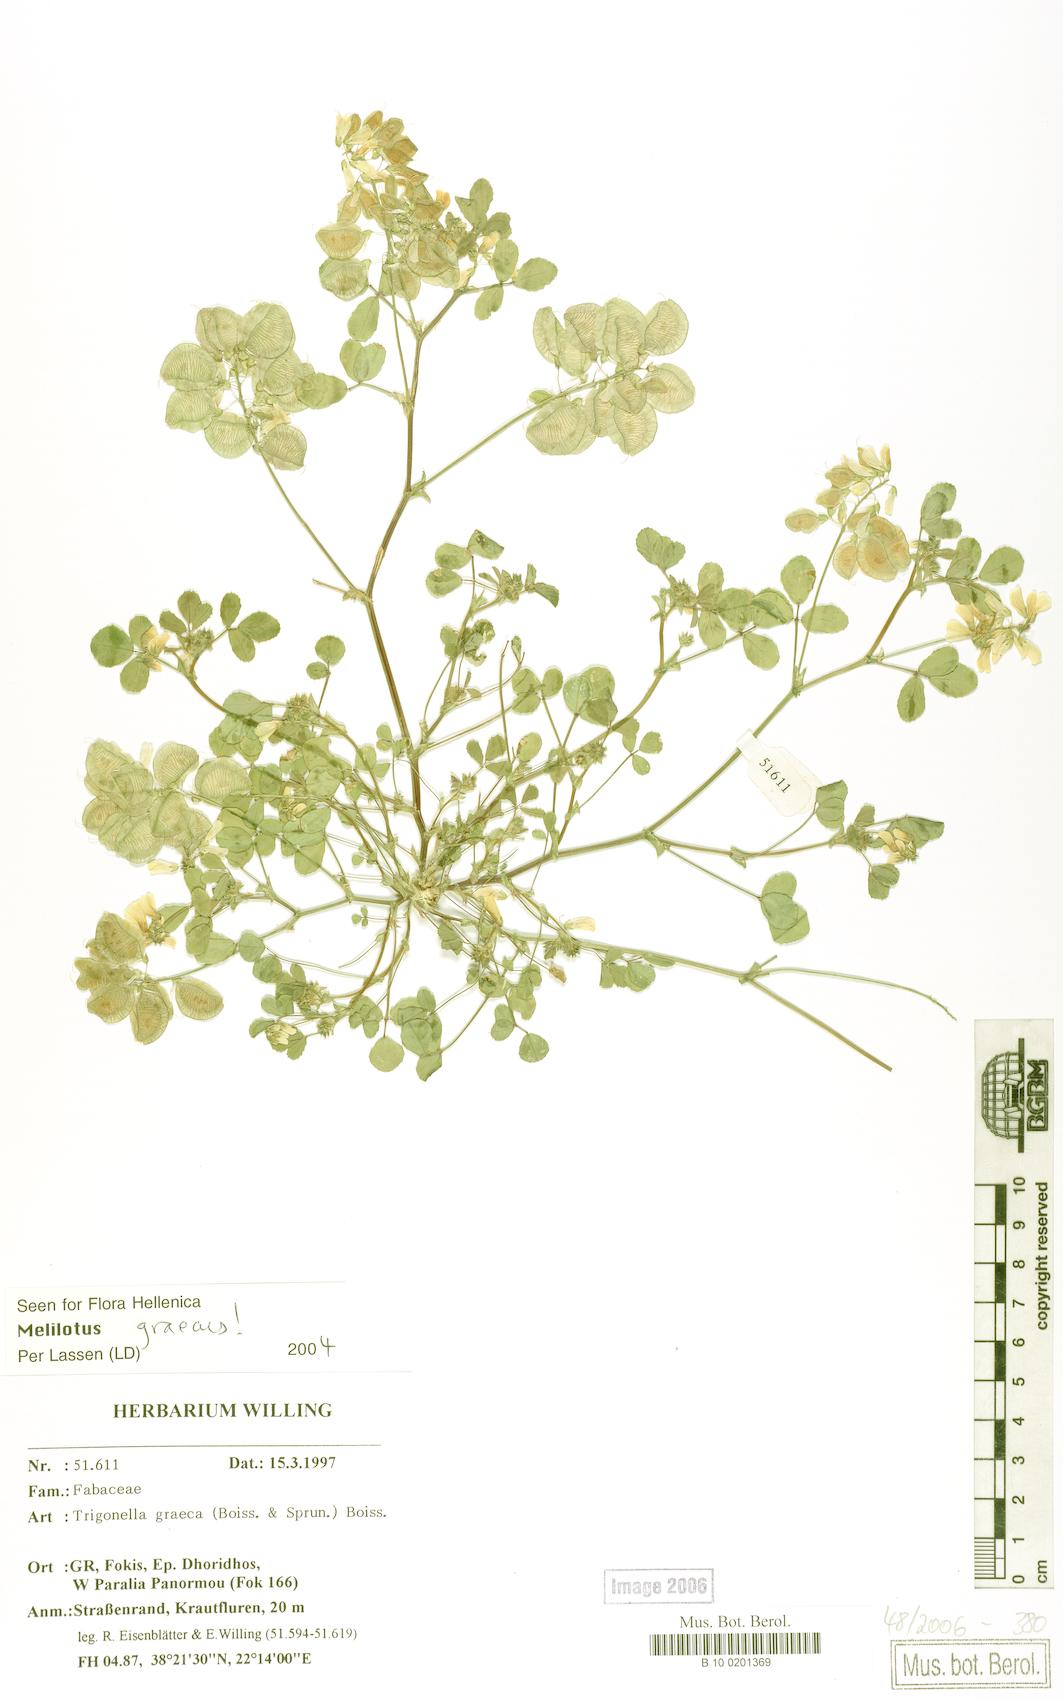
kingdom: Plantae
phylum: Tracheophyta
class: Magnoliopsida
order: Fabales
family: Fabaceae
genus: Trigonella
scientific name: Trigonella graeca
